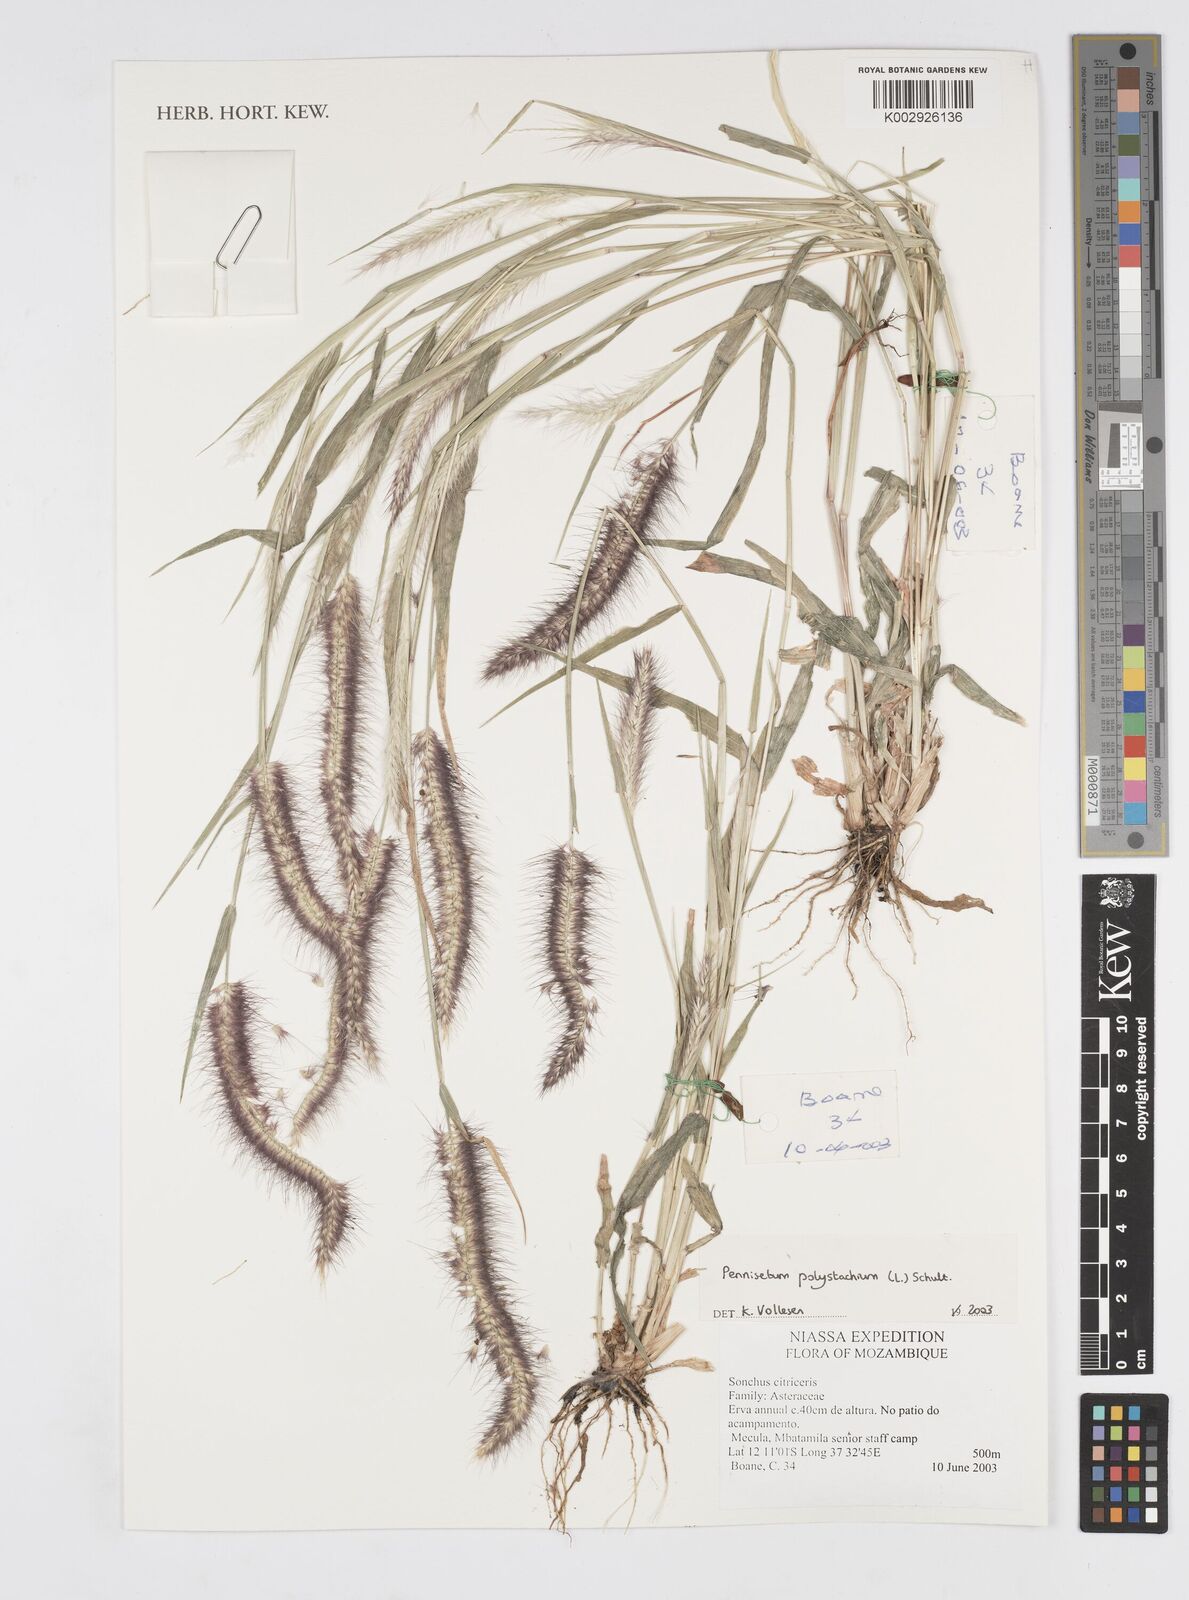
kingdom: Plantae
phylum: Tracheophyta
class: Liliopsida
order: Poales
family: Poaceae
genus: Setaria
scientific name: Setaria parviflora
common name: Knotroot bristle-grass
